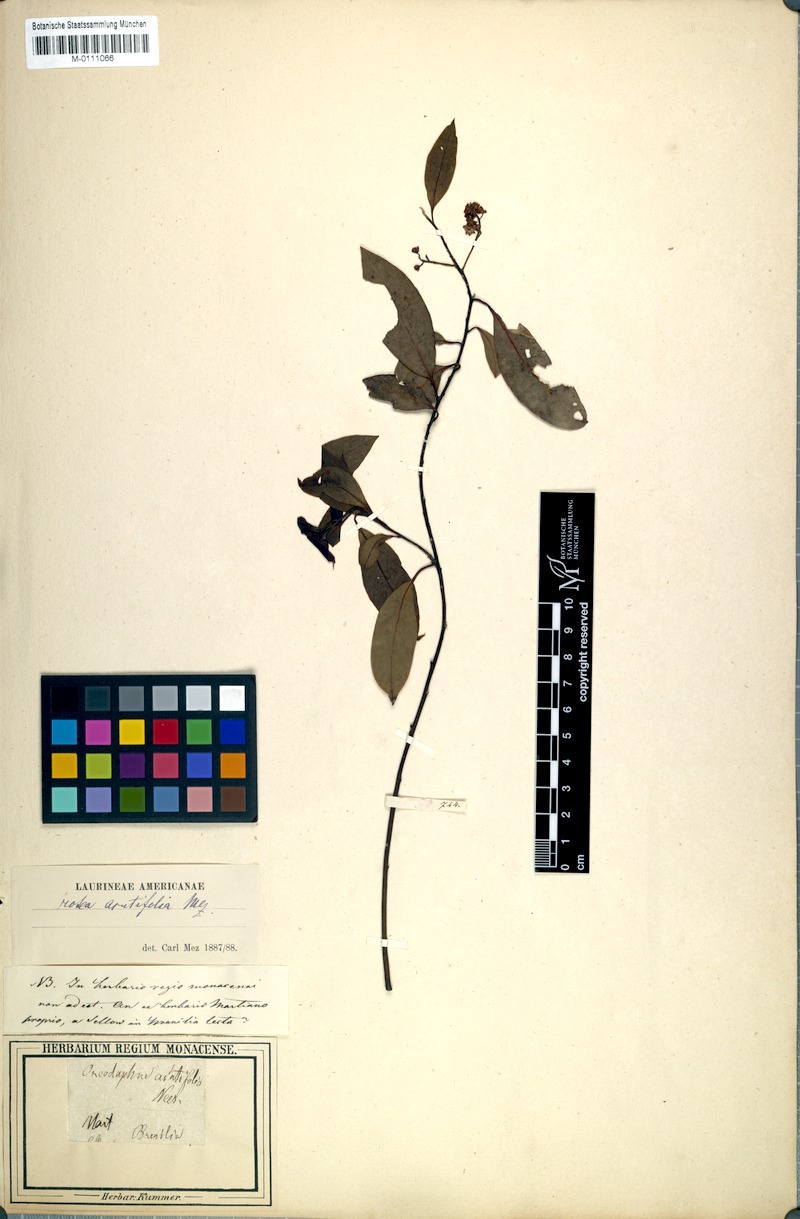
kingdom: Plantae
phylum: Tracheophyta
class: Magnoliopsida
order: Laurales
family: Lauraceae
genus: Ocotea
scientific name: Ocotea acutifolia
